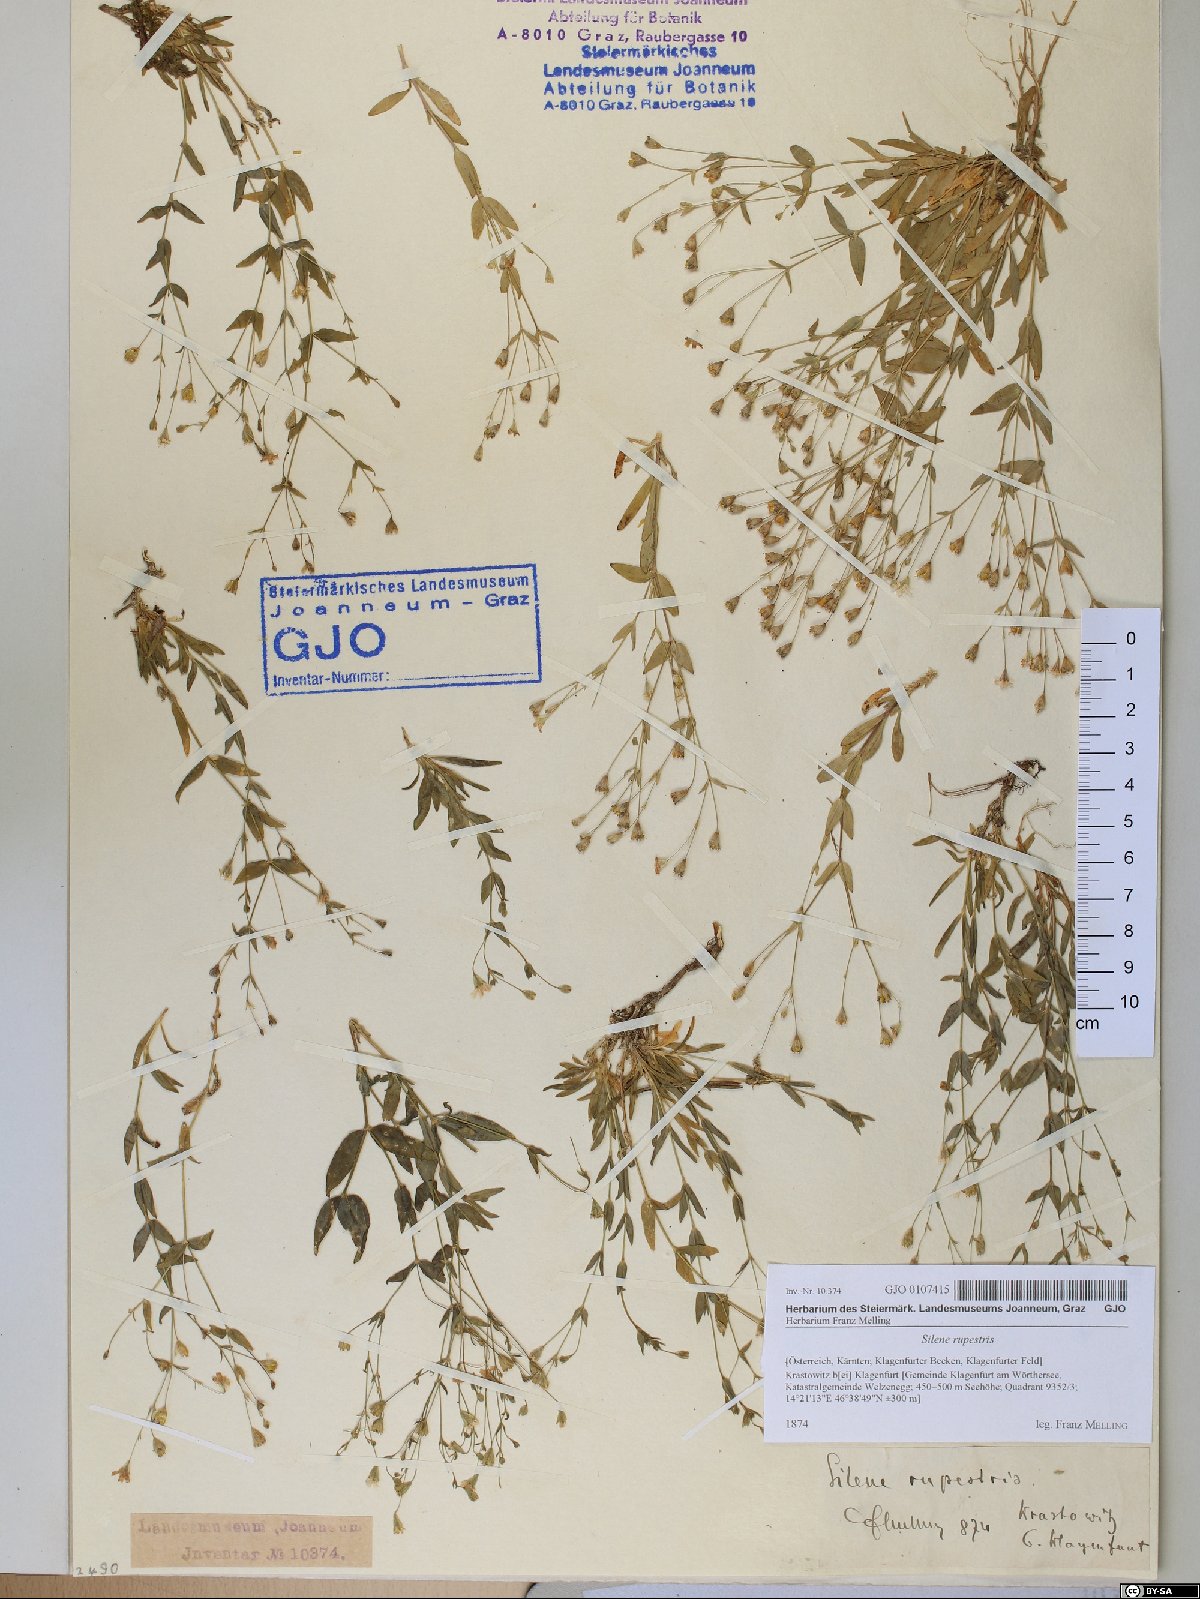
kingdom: Plantae
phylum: Tracheophyta
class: Magnoliopsida
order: Caryophyllales
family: Caryophyllaceae
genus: Atocion
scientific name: Atocion rupestre
